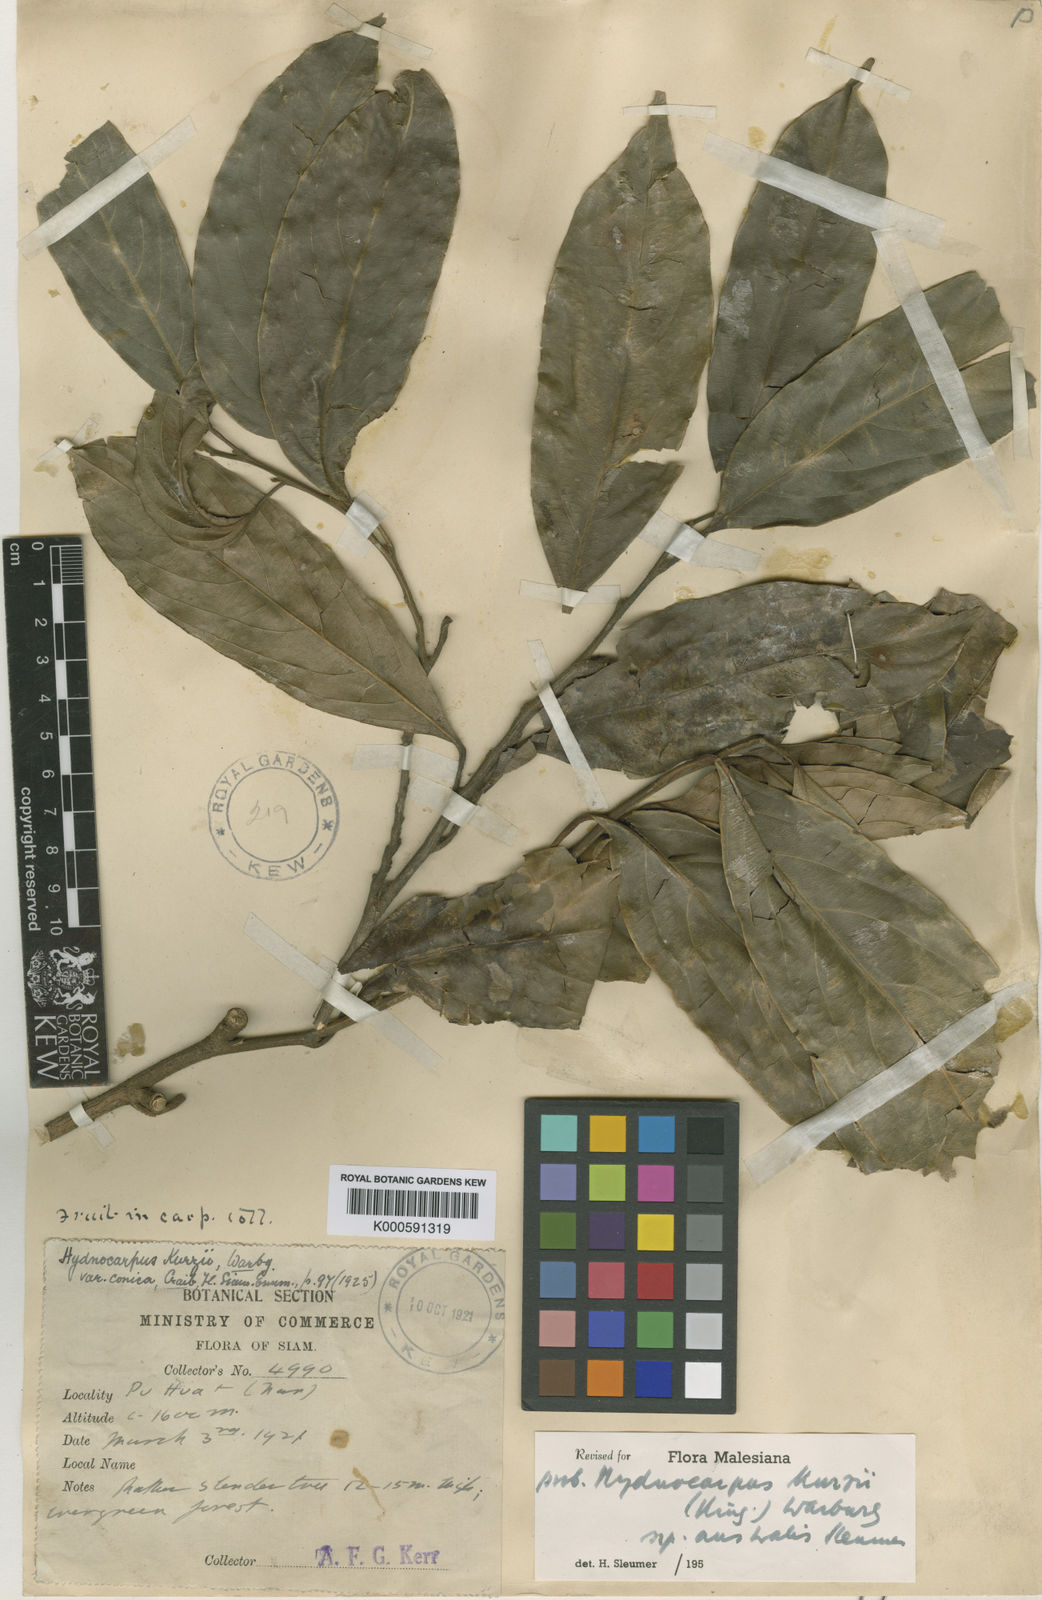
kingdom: Plantae
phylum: Tracheophyta
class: Magnoliopsida
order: Malpighiales
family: Achariaceae
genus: Hydnocarpus
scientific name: Hydnocarpus kurzii
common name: Chaulmoogra
